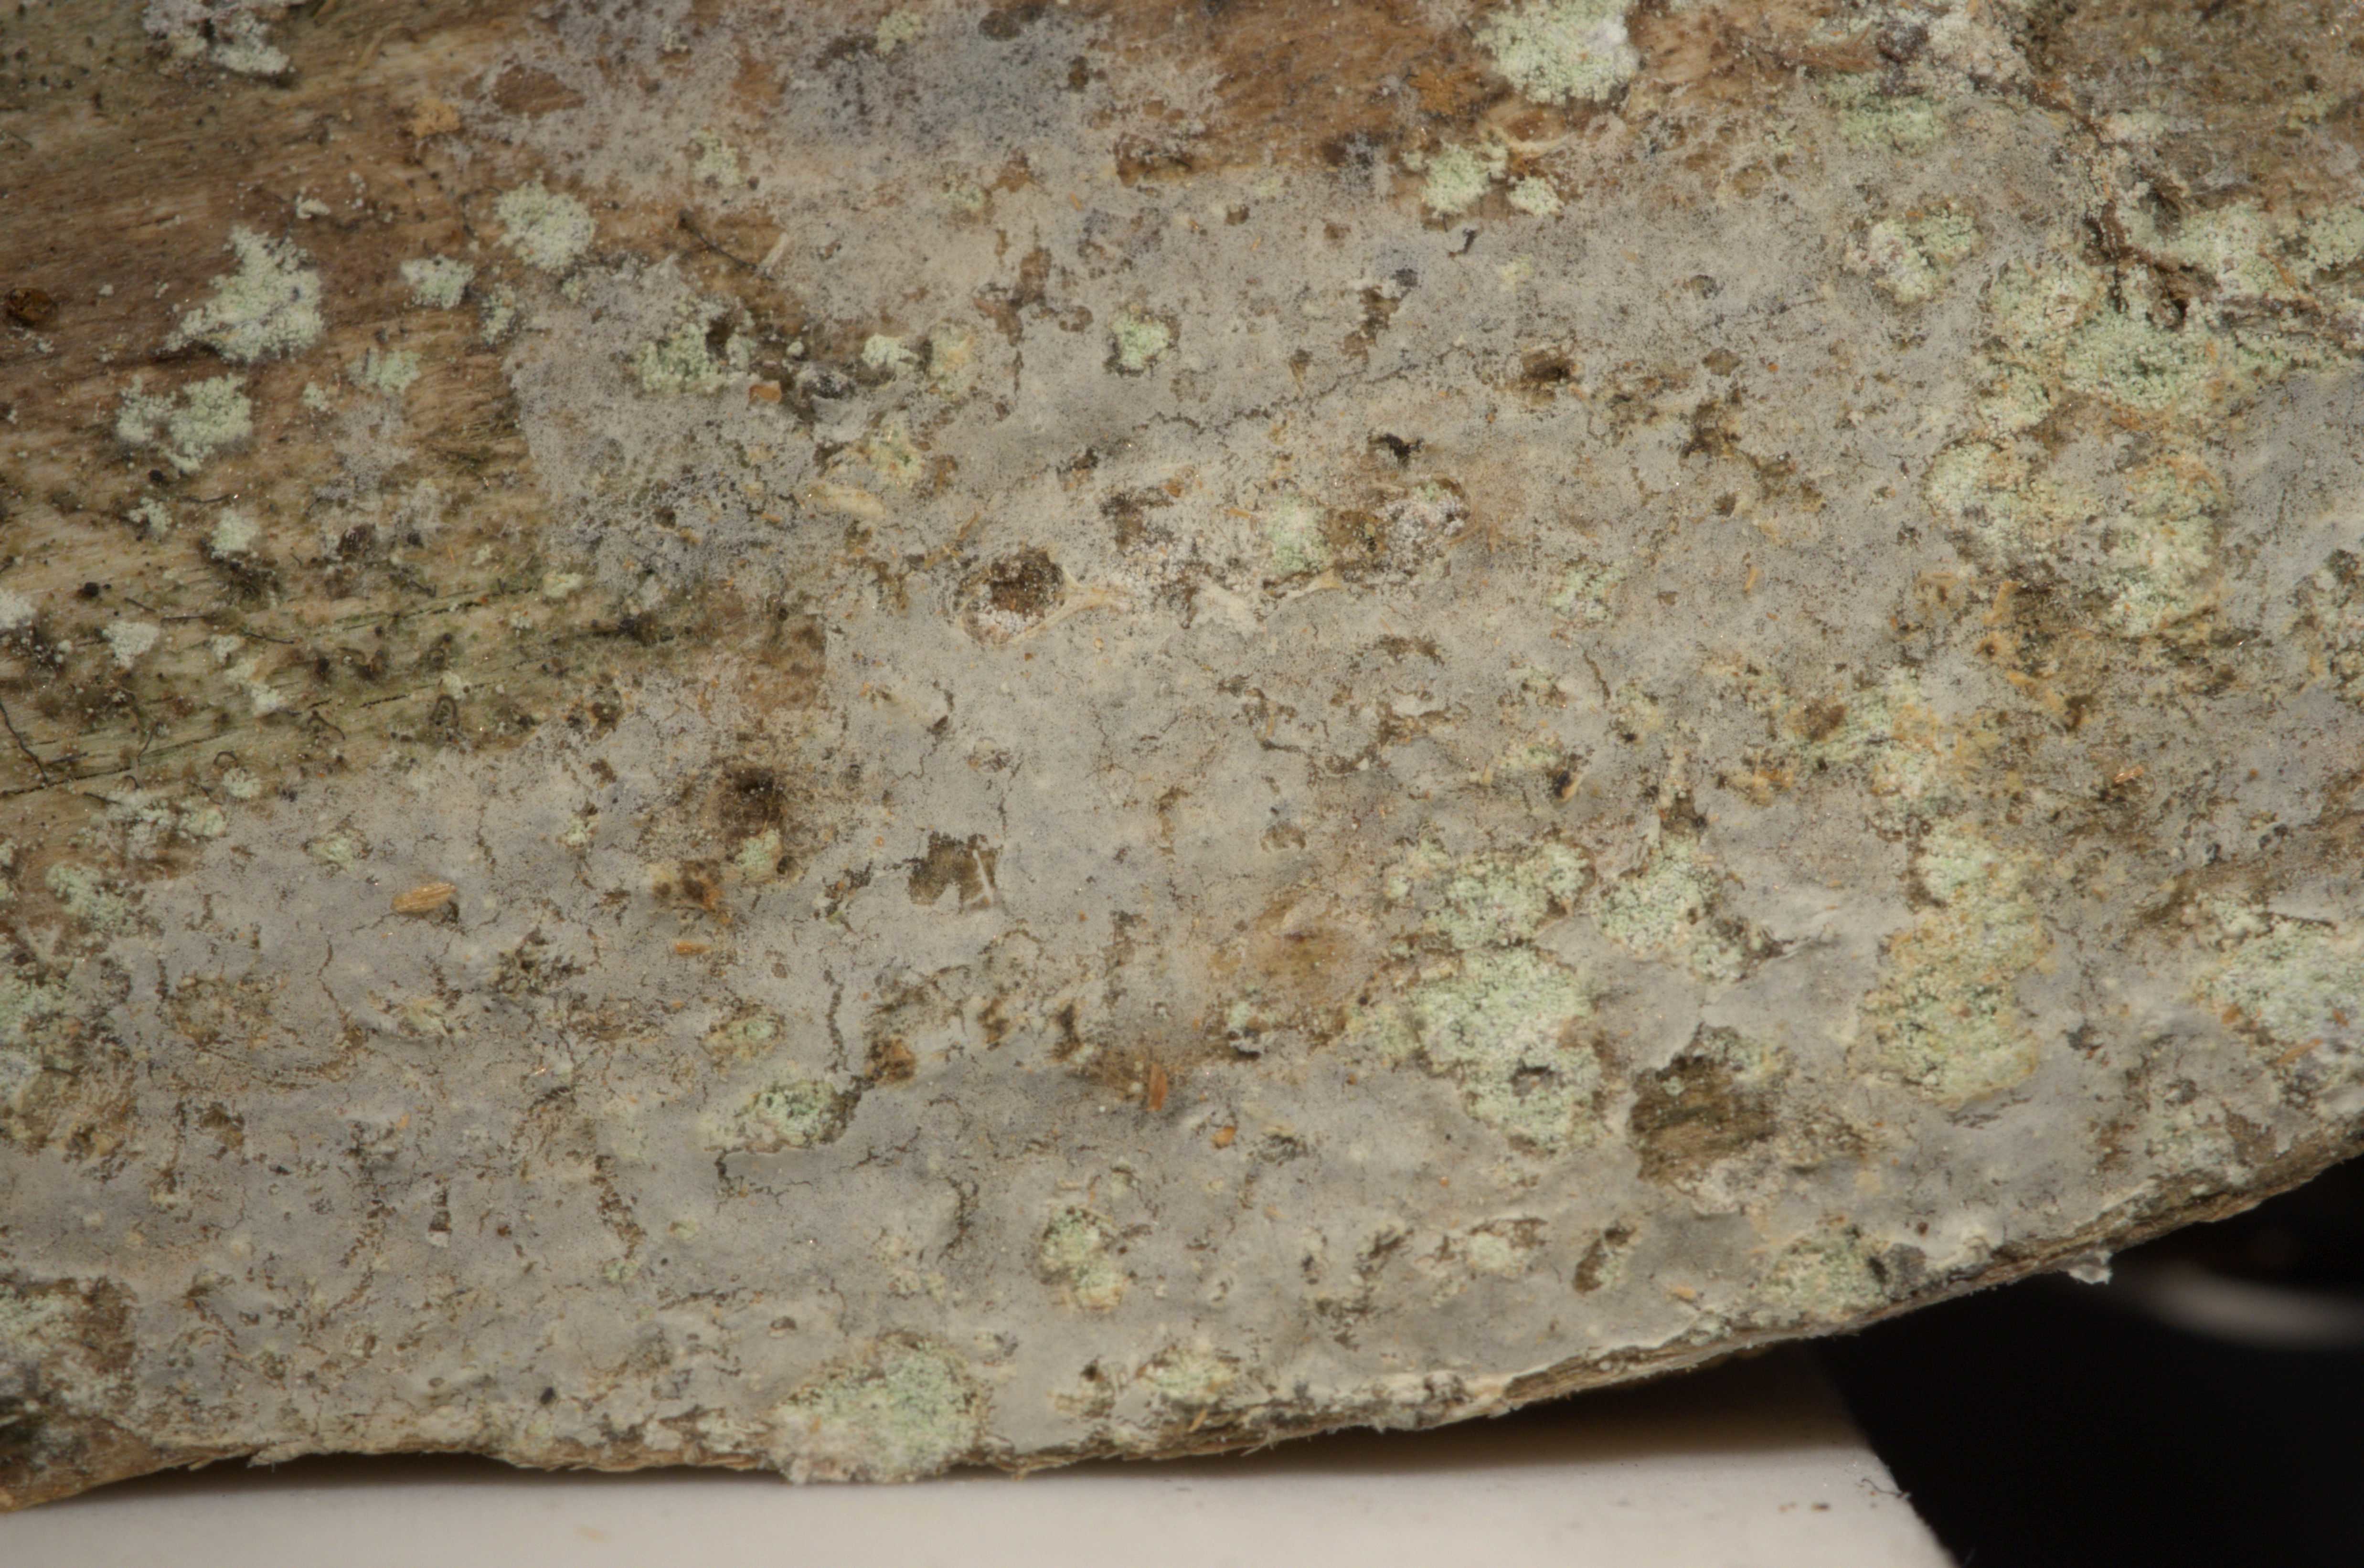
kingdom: Fungi
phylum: Basidiomycota
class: Agaricomycetes
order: Atheliales
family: Atheliaceae
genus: Athelia
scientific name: Athelia acrospora
